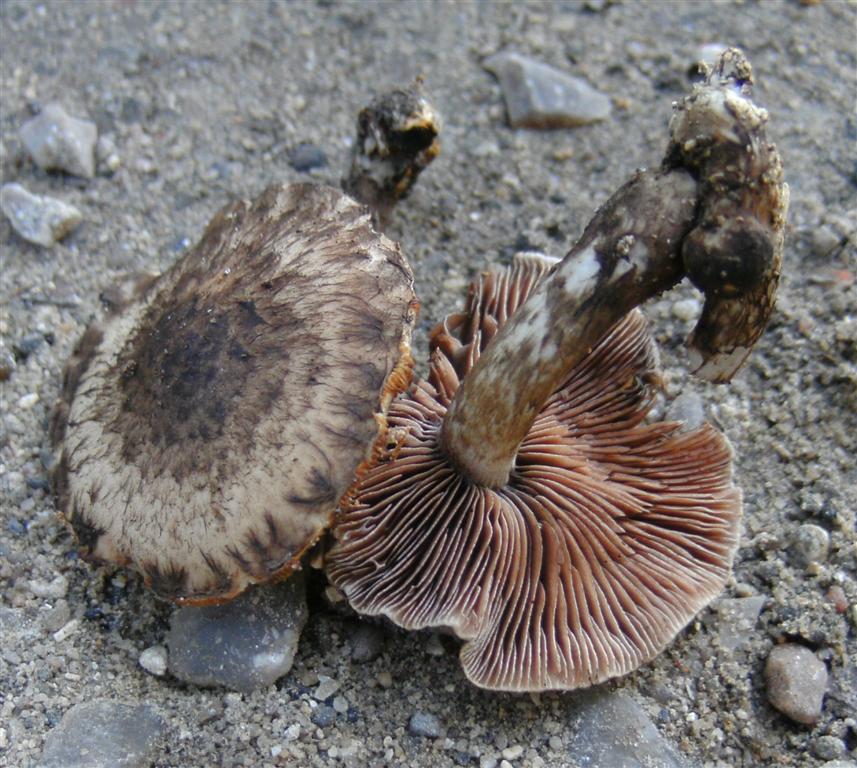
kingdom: Fungi
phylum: Basidiomycota
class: Agaricomycetes
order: Agaricales
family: Psathyrellaceae
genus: Psathyrella
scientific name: Psathyrella maculata
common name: sortskællet mørkhat
